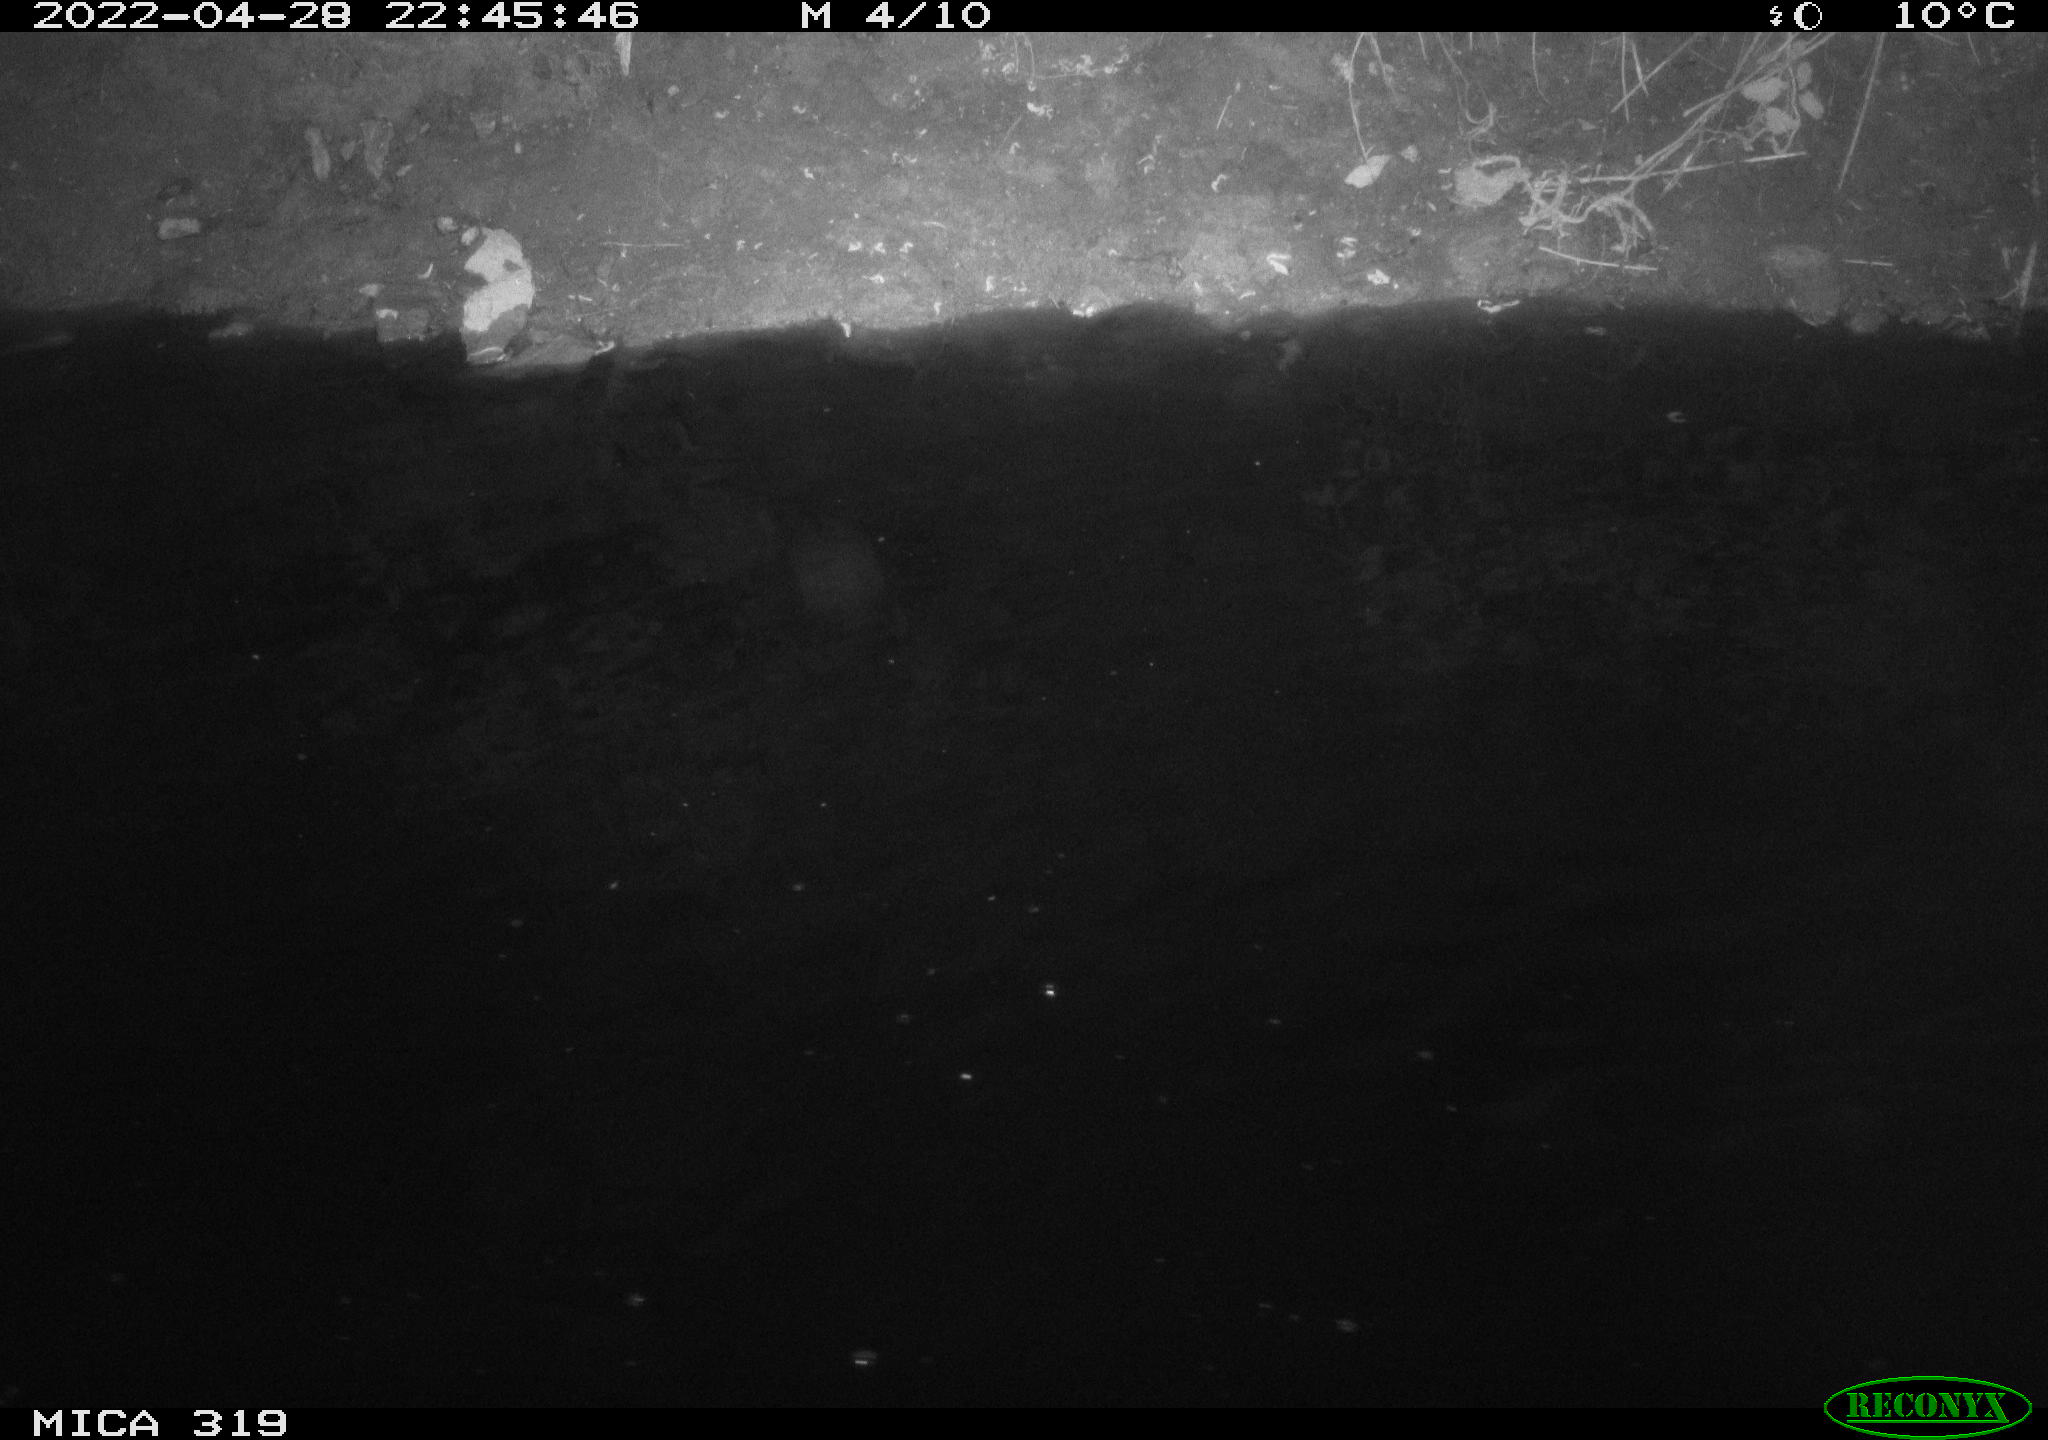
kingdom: Animalia
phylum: Chordata
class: Aves
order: Anseriformes
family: Anatidae
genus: Anas
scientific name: Anas platyrhynchos
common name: Mallard
